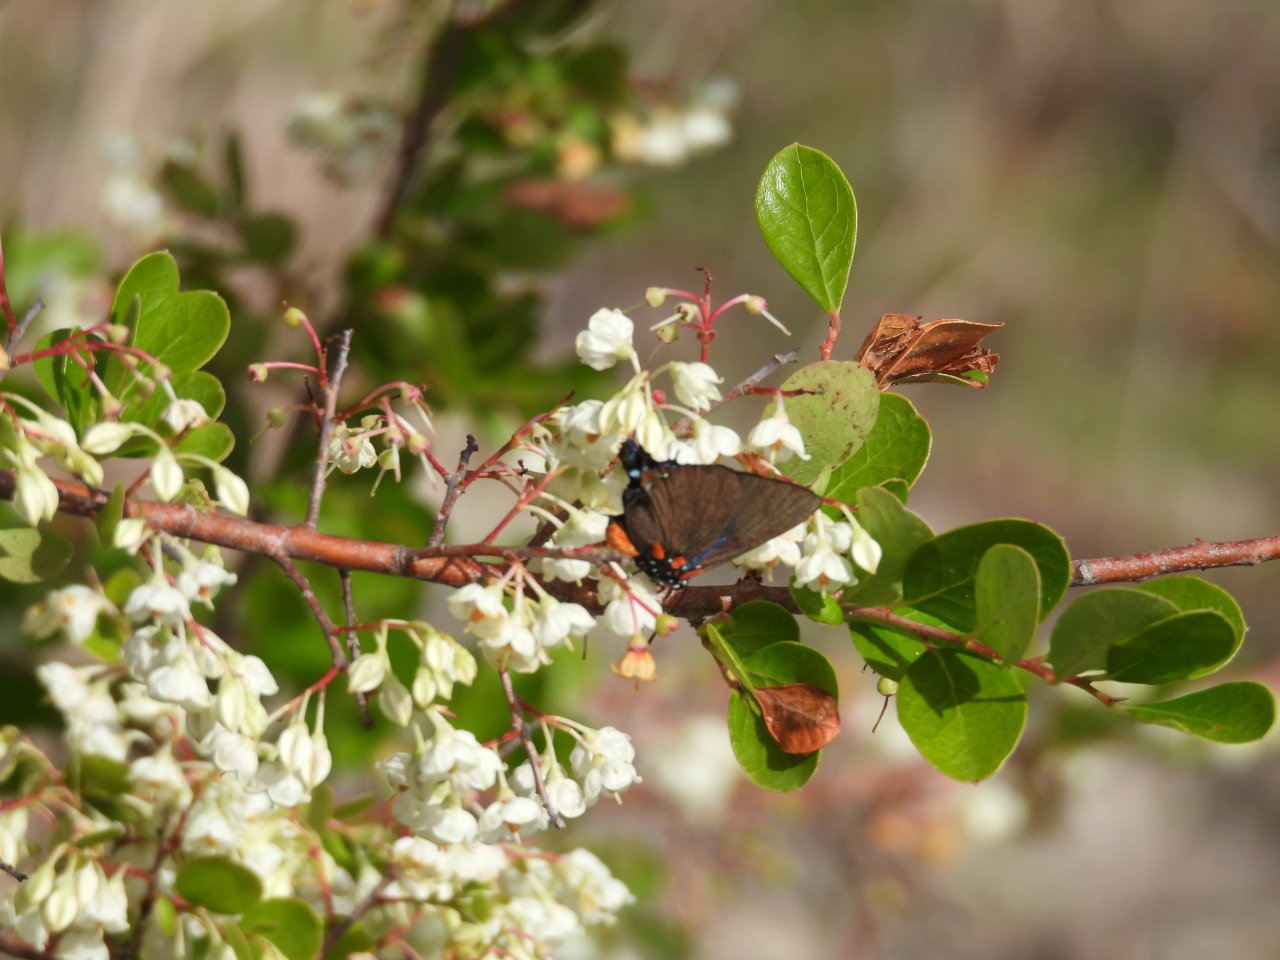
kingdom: Animalia
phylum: Arthropoda
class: Insecta
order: Lepidoptera
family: Lycaenidae
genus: Atlides
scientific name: Atlides halesus
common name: Great Purple Hairstreak
